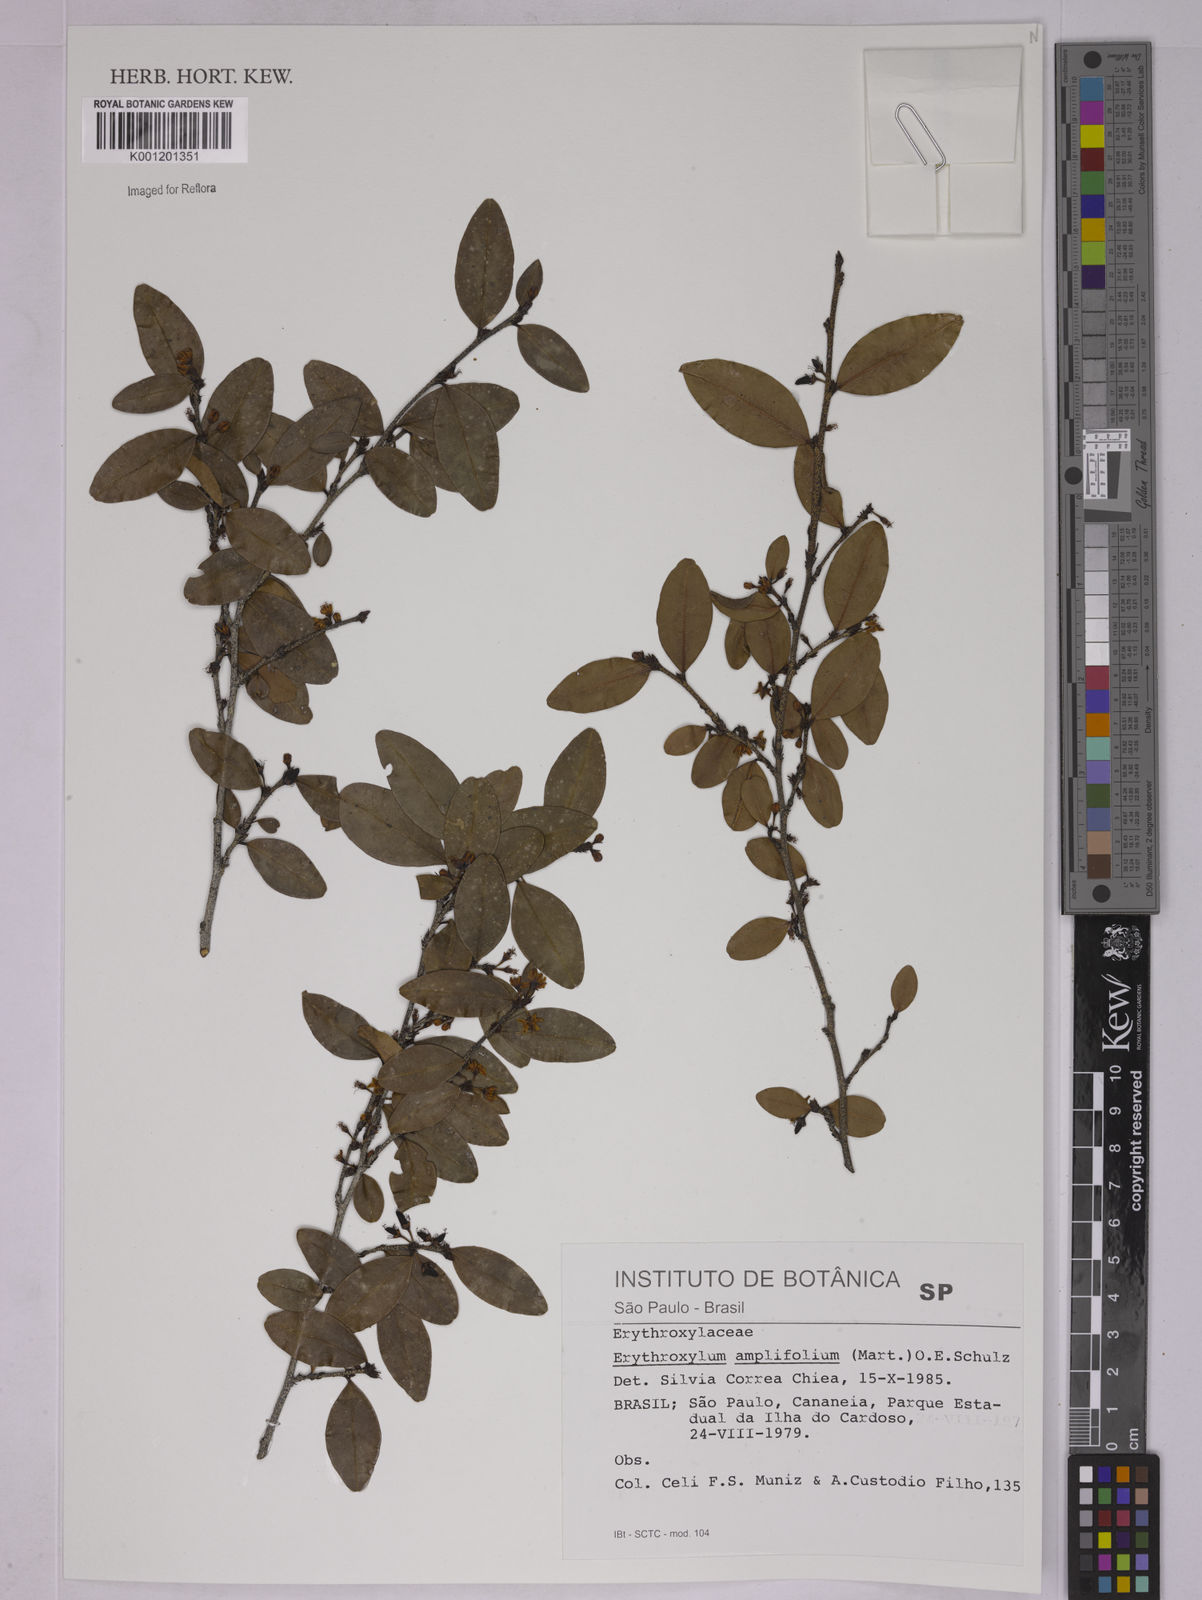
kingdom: Plantae
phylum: Tracheophyta
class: Magnoliopsida
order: Malpighiales
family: Erythroxylaceae
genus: Erythroxylum
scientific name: Erythroxylum
